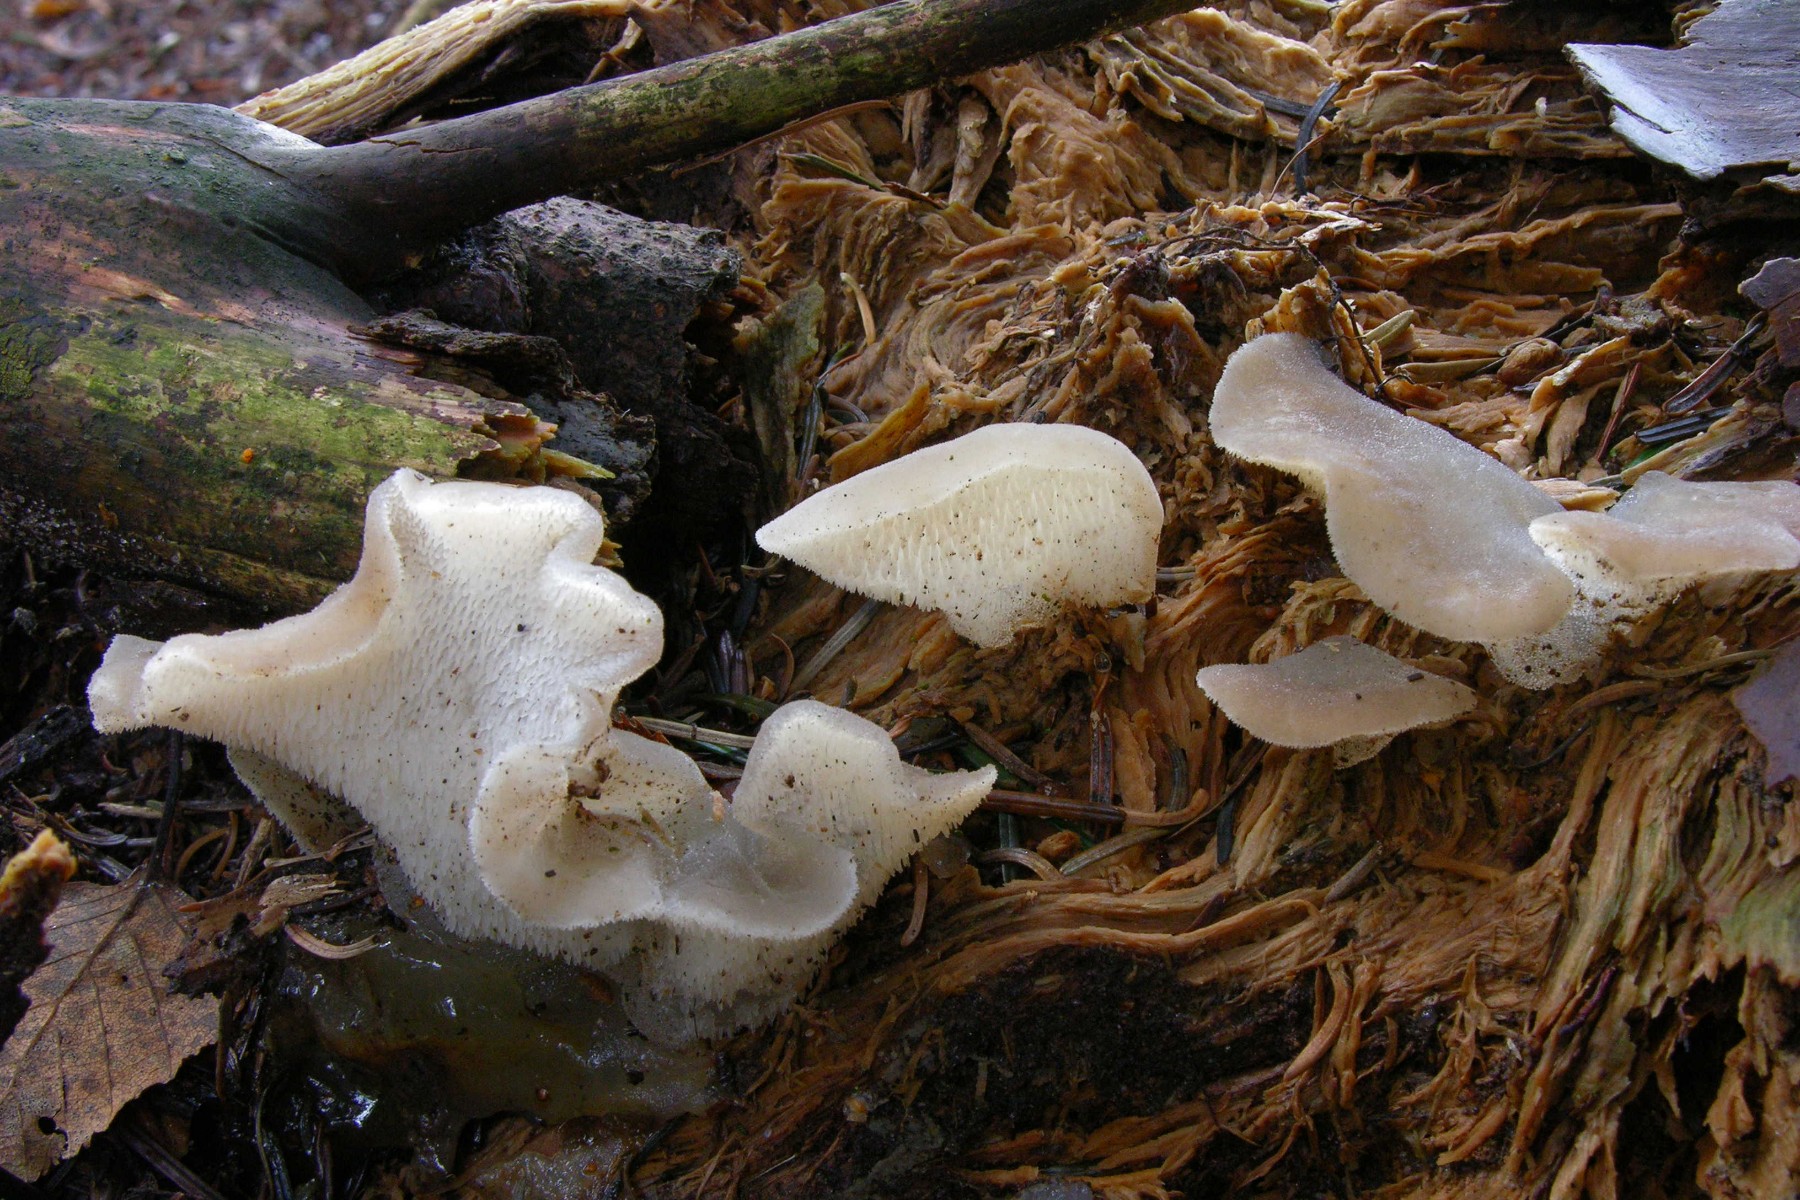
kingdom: Fungi
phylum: Basidiomycota
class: Agaricomycetes
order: Auriculariales
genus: Pseudohydnum
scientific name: Pseudohydnum gelatinosum
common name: bævretand
